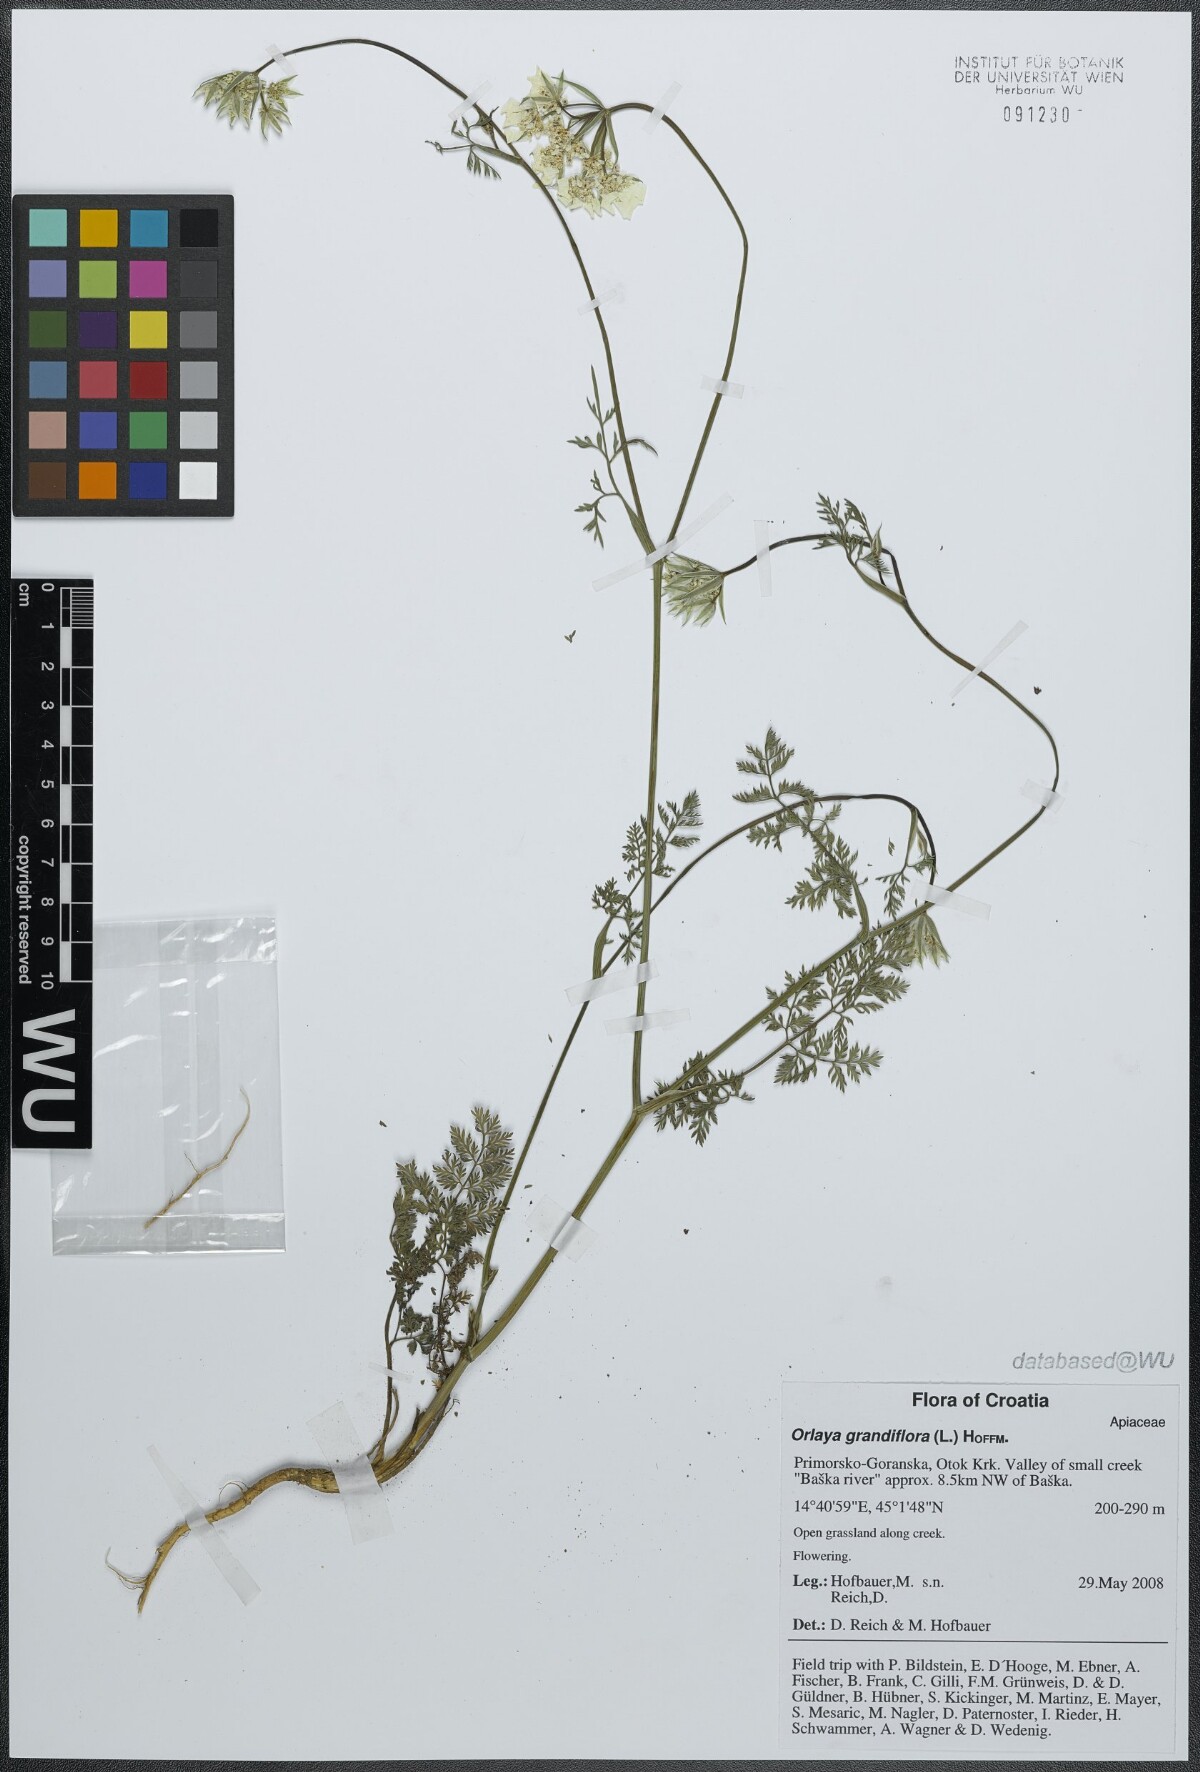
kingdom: Plantae
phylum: Tracheophyta
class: Magnoliopsida
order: Apiales
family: Apiaceae
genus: Orlaya
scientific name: Orlaya grandiflora
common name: White lace flower
